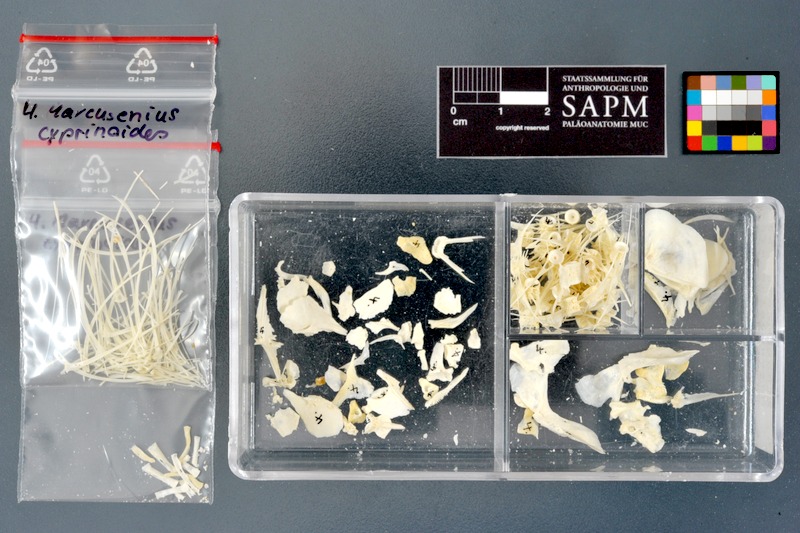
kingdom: Animalia
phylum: Chordata
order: Osteoglossiformes
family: Mormyridae
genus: Marcusenius
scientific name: Marcusenius cyprinoides
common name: Trunkfish
